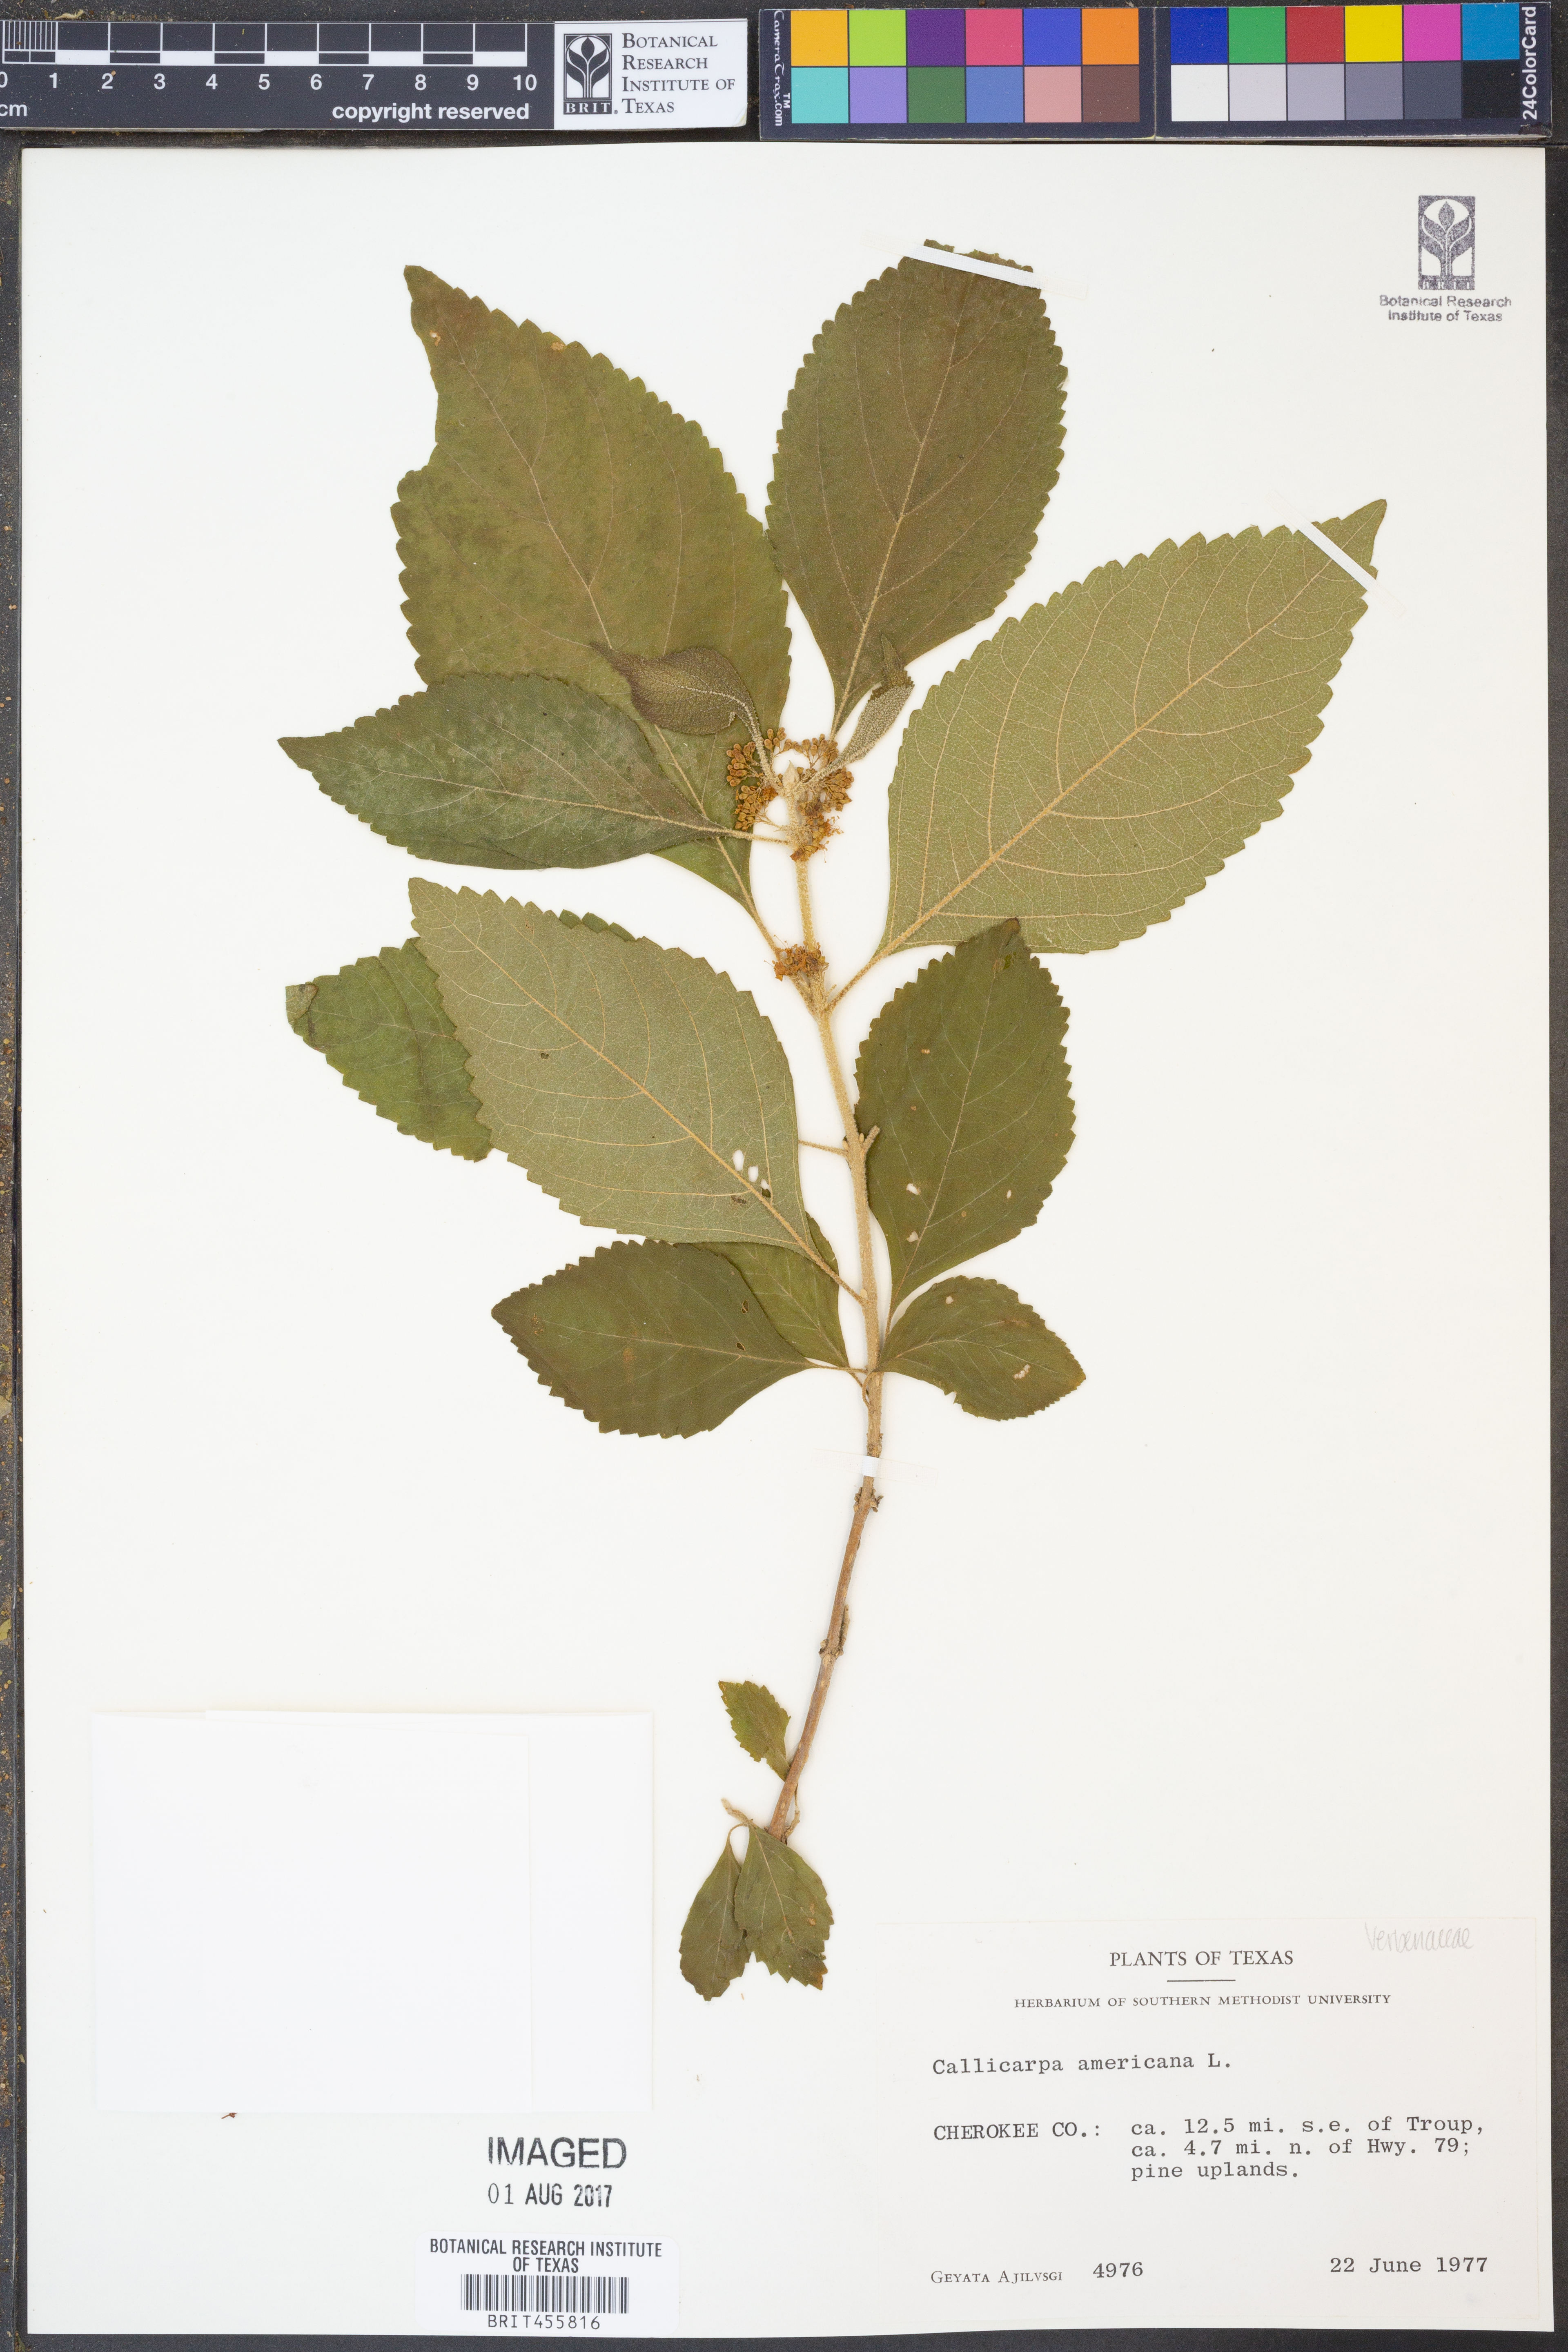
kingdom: Plantae
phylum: Tracheophyta
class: Magnoliopsida
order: Lamiales
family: Lamiaceae
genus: Callicarpa
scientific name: Callicarpa americana
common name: American beautyberry
